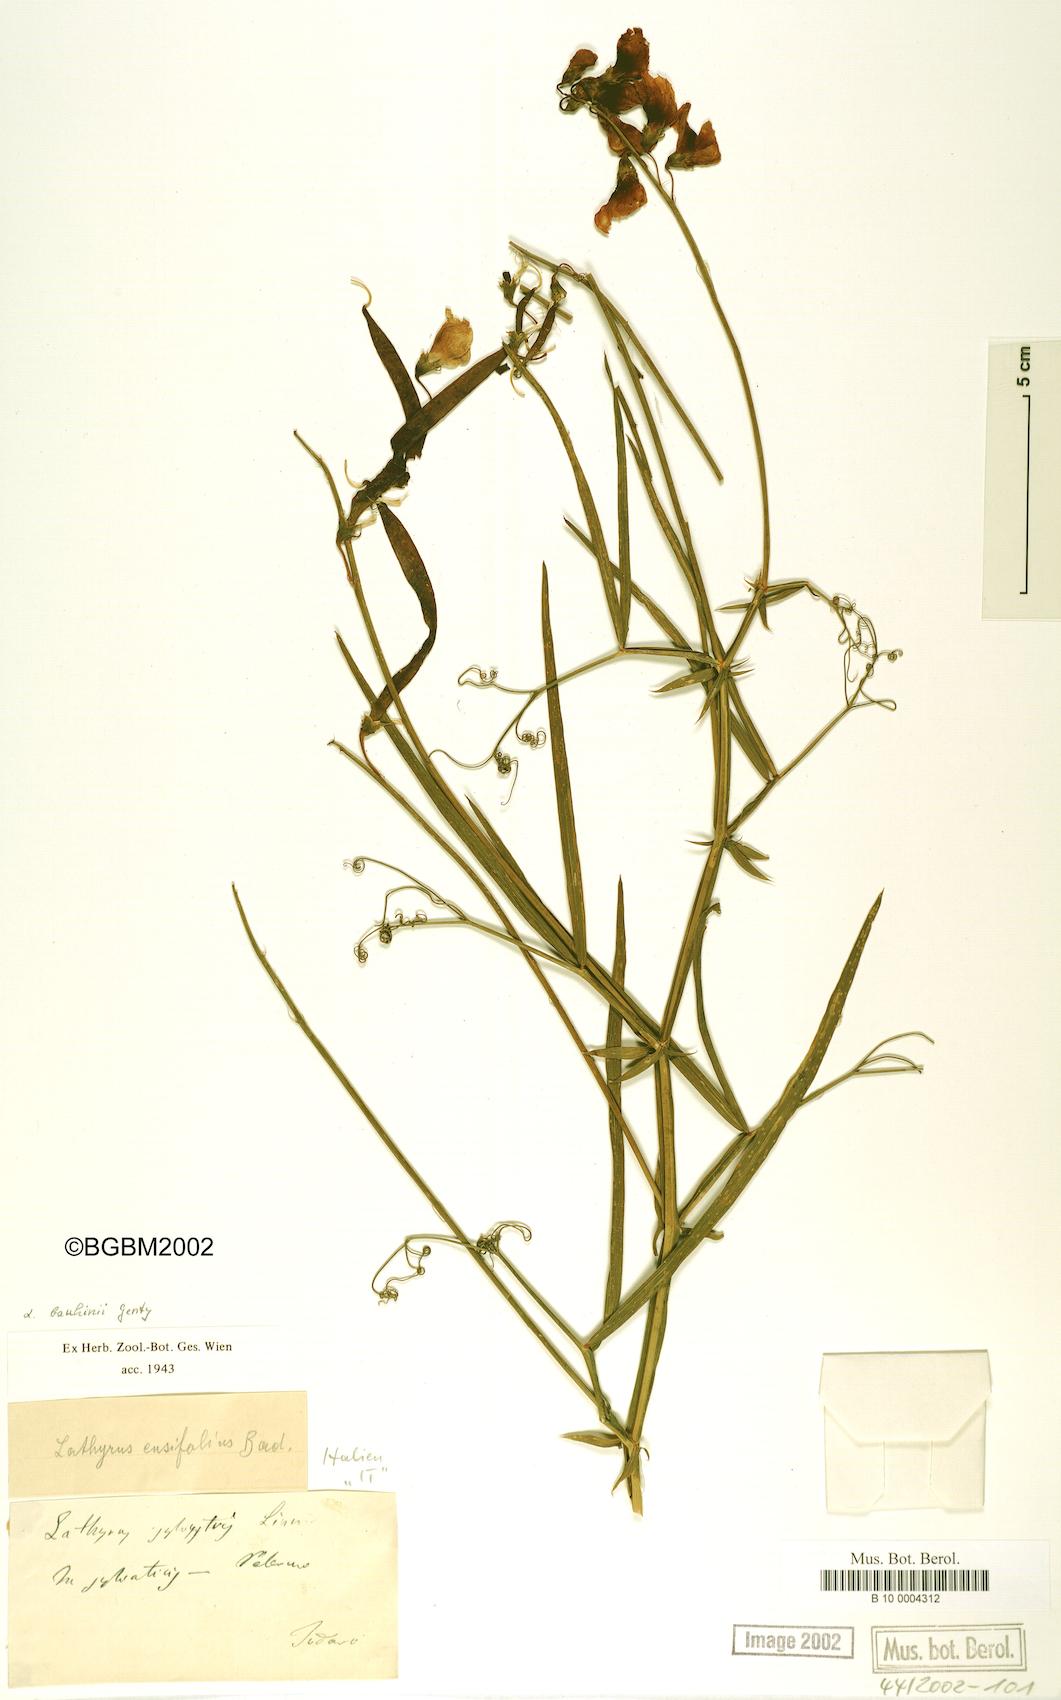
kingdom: Plantae
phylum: Tracheophyta
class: Magnoliopsida
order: Fabales
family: Fabaceae
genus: Lathyrus
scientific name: Lathyrus bauhini
